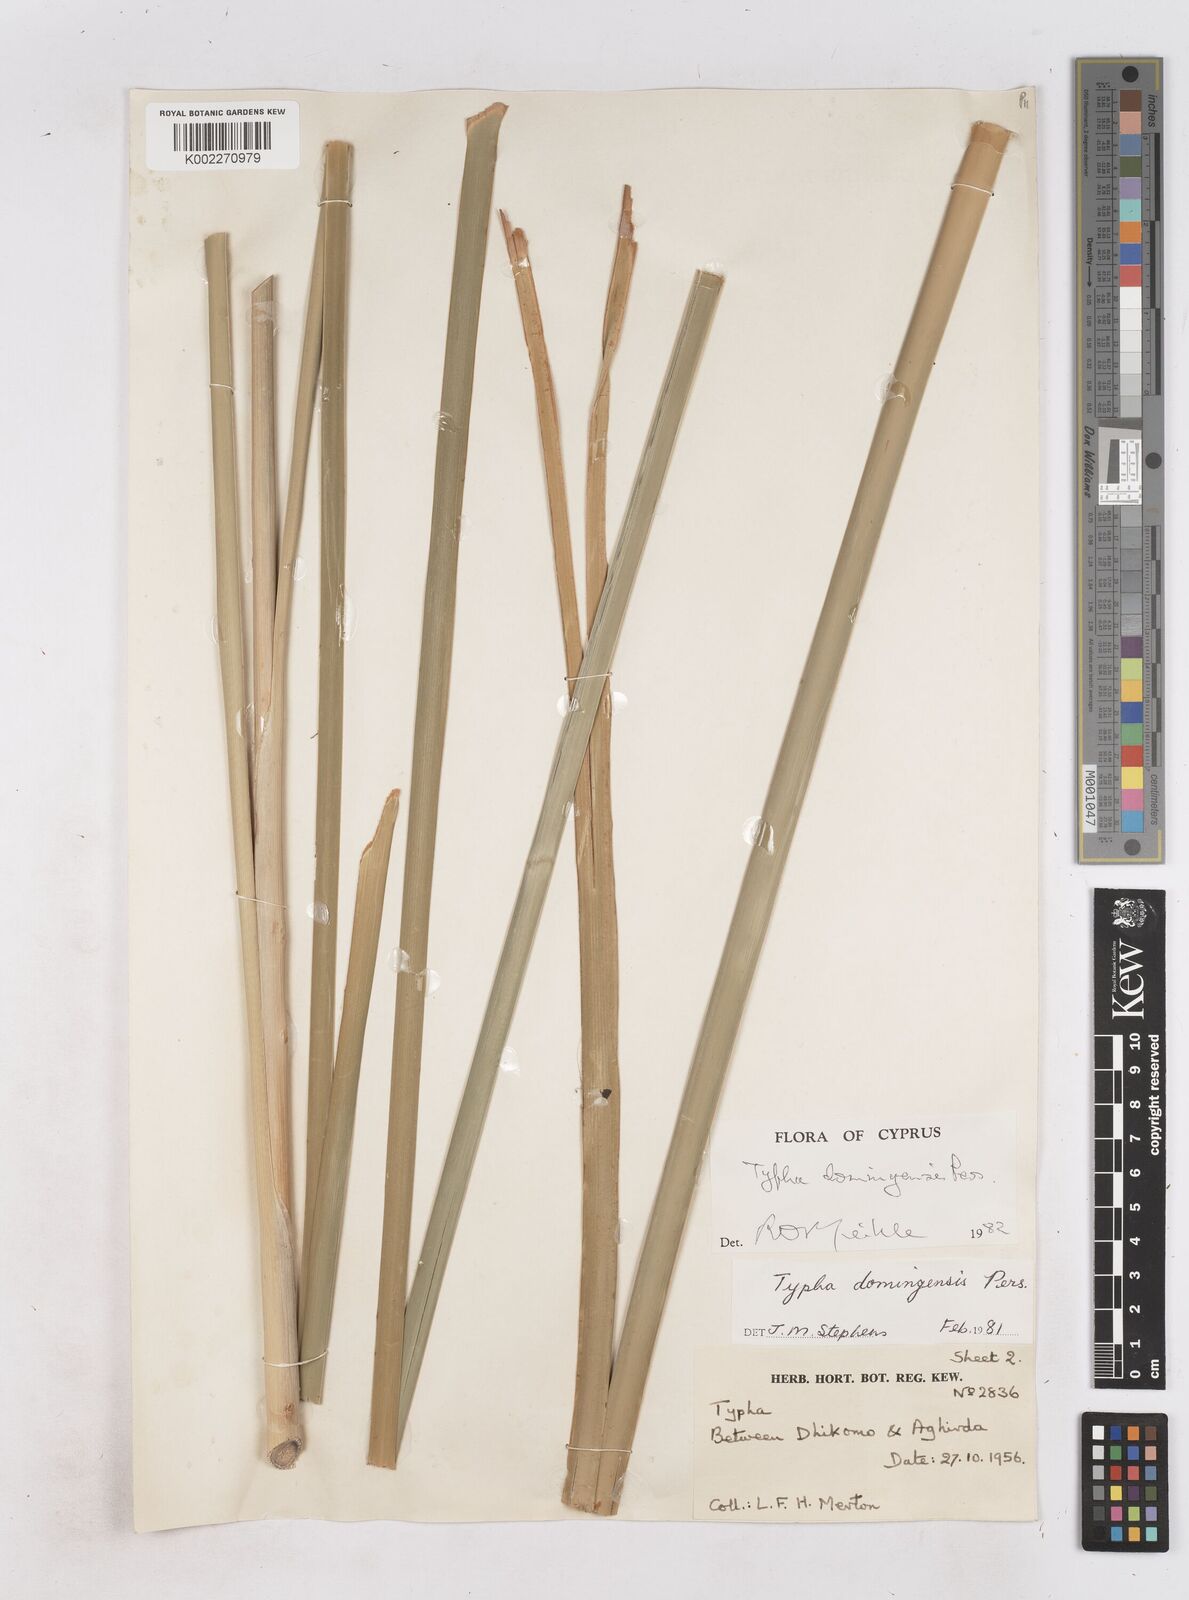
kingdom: Plantae
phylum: Tracheophyta
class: Liliopsida
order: Poales
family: Typhaceae
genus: Typha
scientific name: Typha domingensis
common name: Southern cattail
